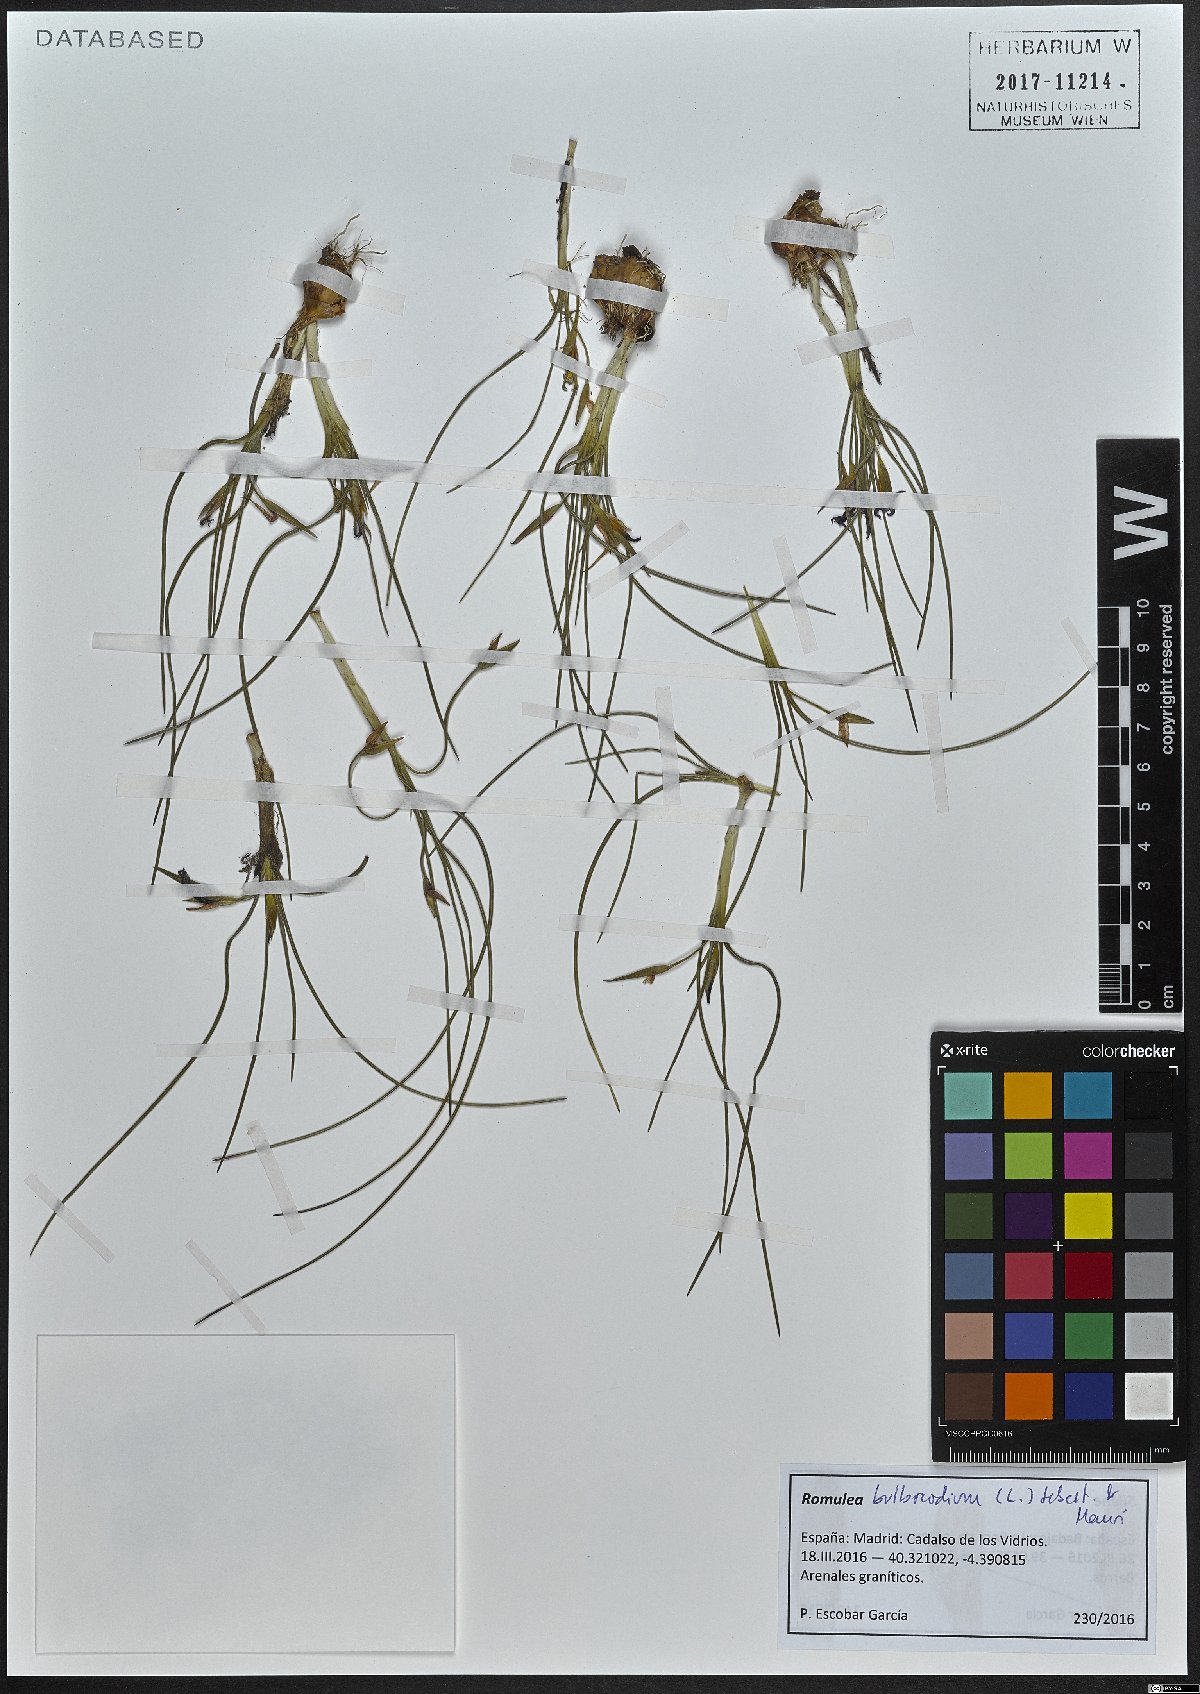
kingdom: Plantae
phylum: Tracheophyta
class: Liliopsida
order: Asparagales
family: Iridaceae
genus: Romulea
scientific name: Romulea bulbocodium
